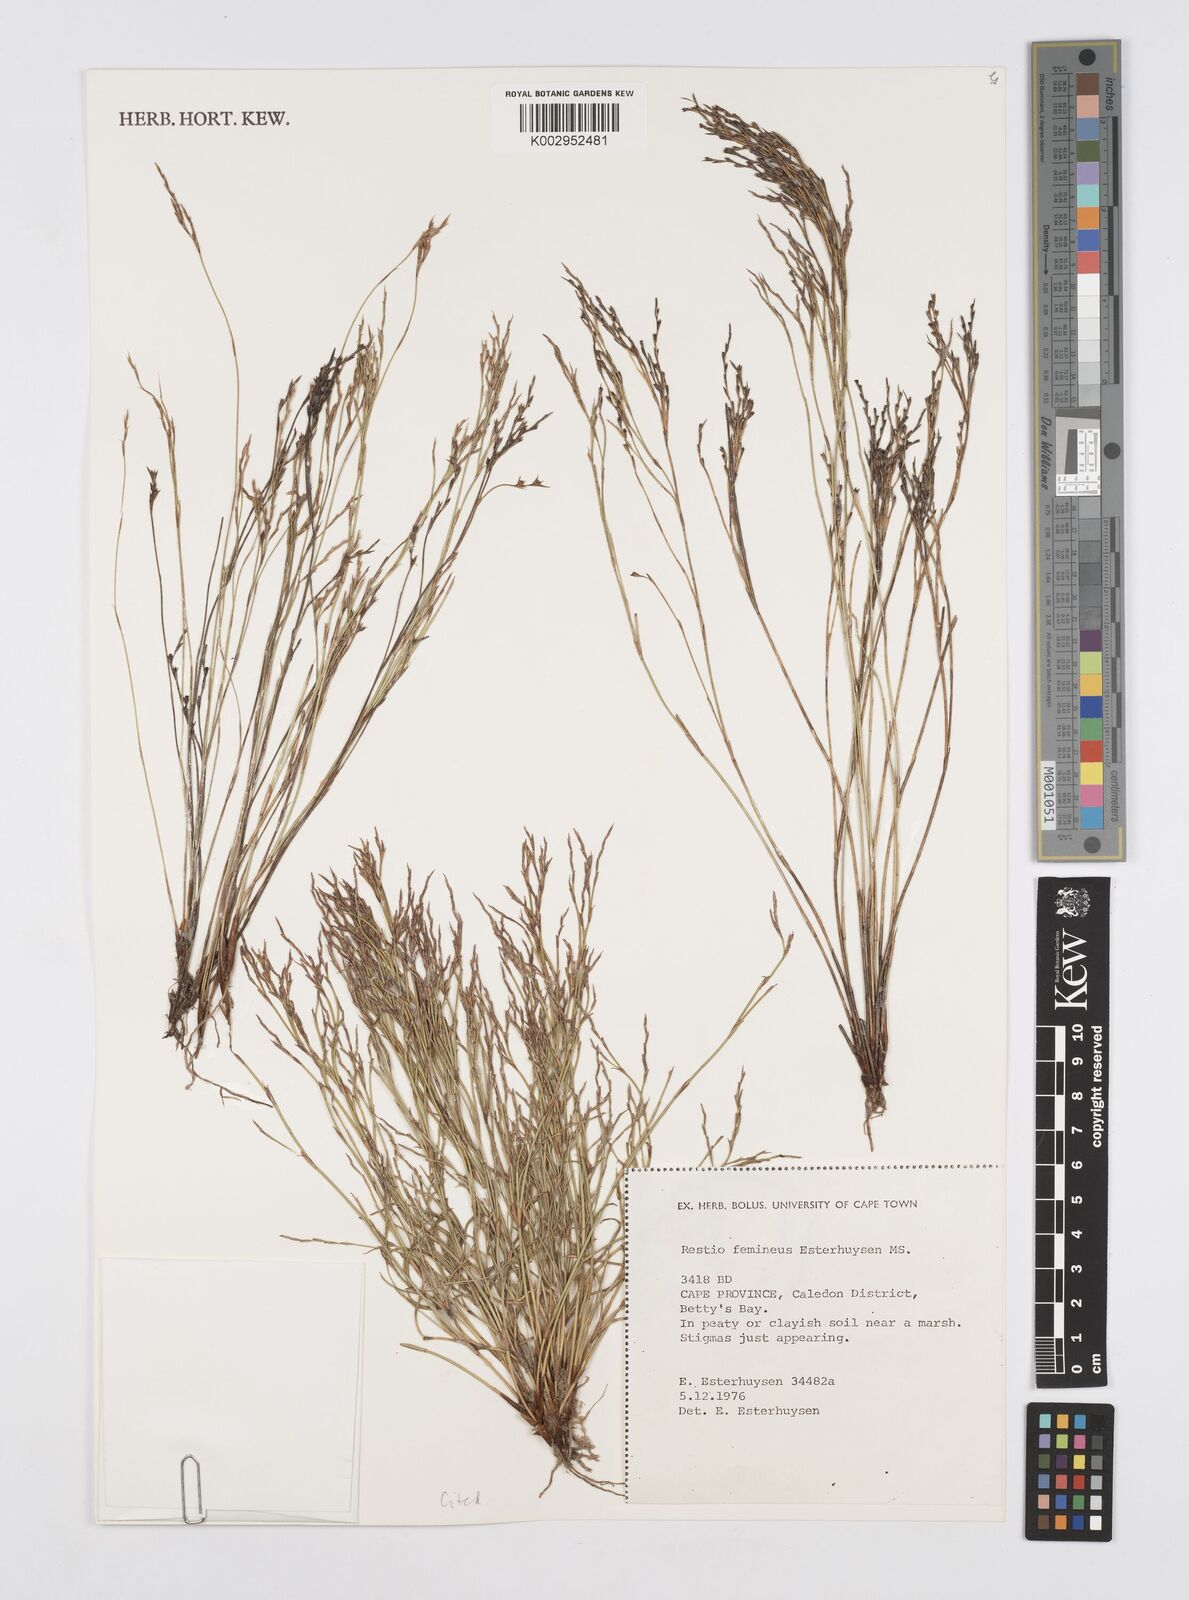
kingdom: Plantae
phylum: Tracheophyta
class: Liliopsida
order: Poales
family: Restionaceae
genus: Restio
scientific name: Restio femineus
